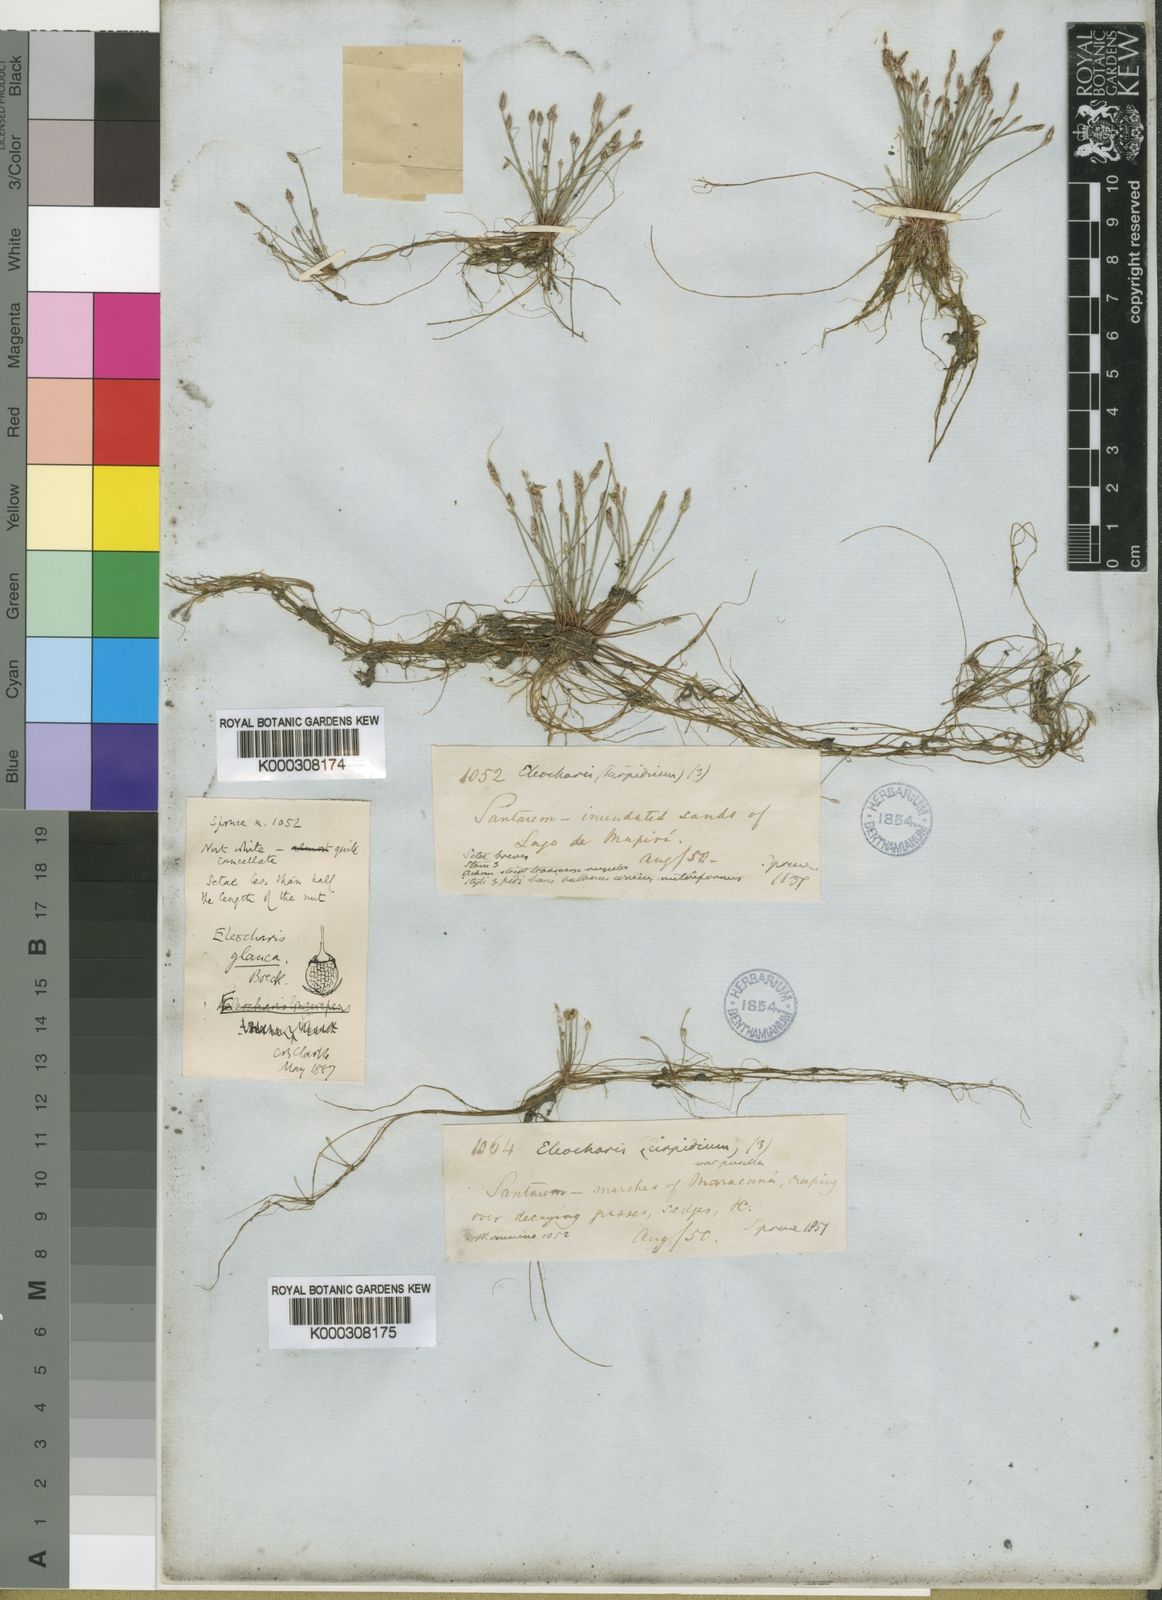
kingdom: Plantae
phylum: Tracheophyta
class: Liliopsida
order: Poales
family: Cyperaceae
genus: Eleocharis
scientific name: Eleocharis glauca
